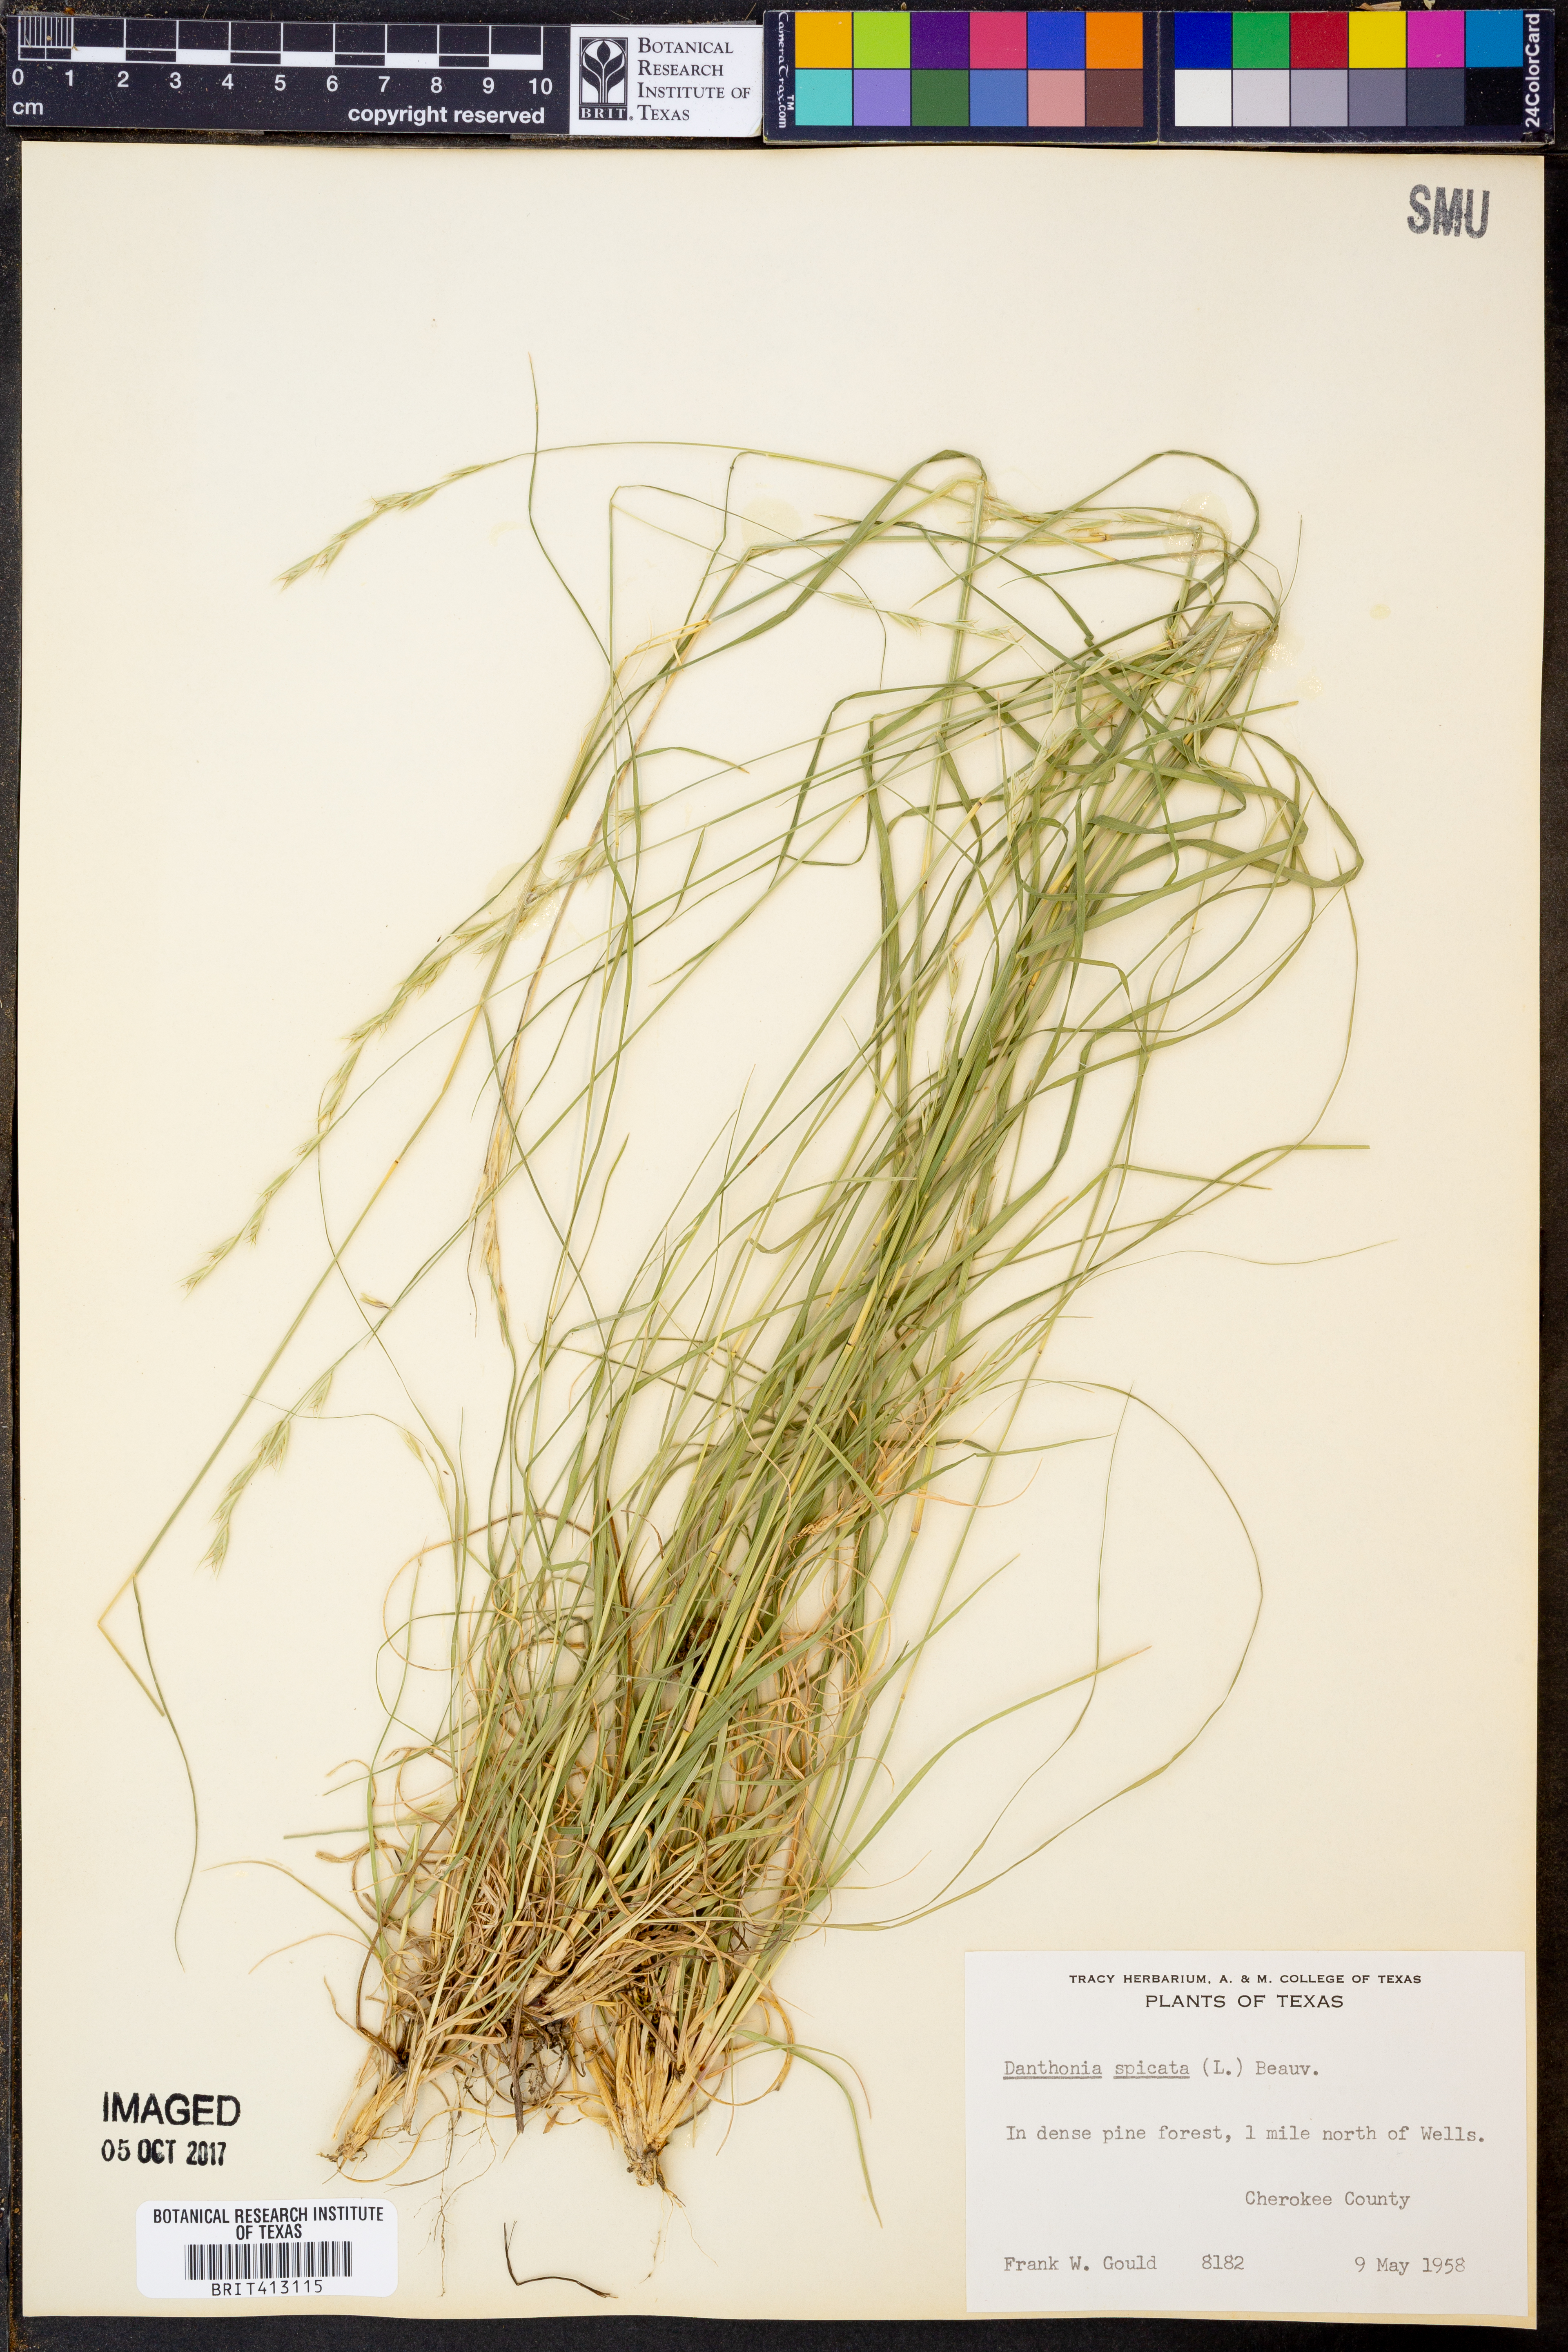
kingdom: Plantae
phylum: Tracheophyta
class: Liliopsida
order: Poales
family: Poaceae
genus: Danthonia
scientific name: Danthonia spicata
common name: Common wild oatgrass
